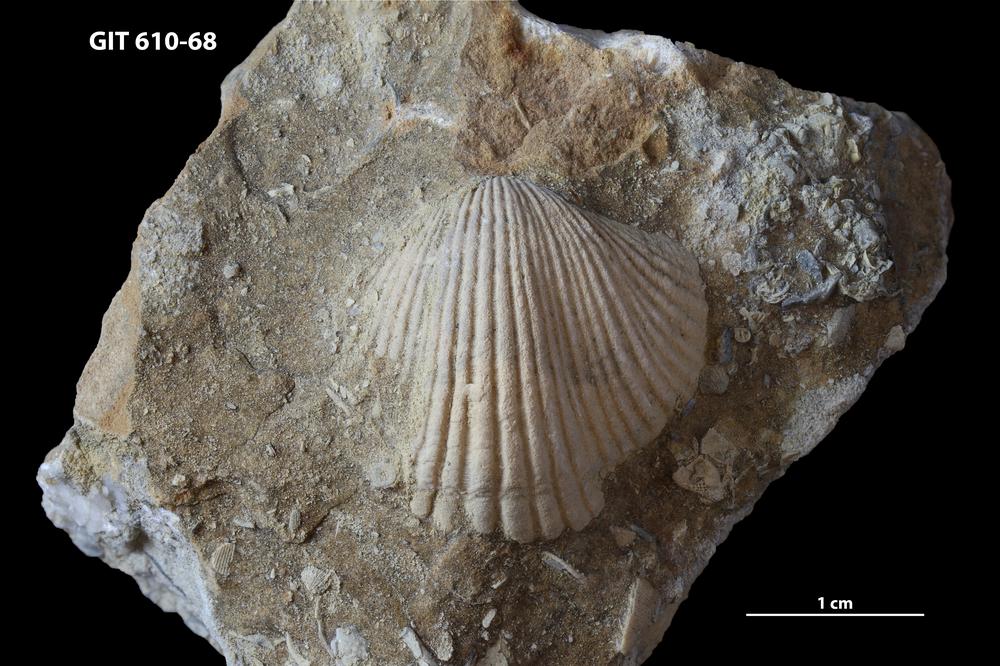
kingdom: Animalia
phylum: Brachiopoda
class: Rhynchonellata
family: Triplesiidae
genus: Cliftonia
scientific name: Cliftonia
